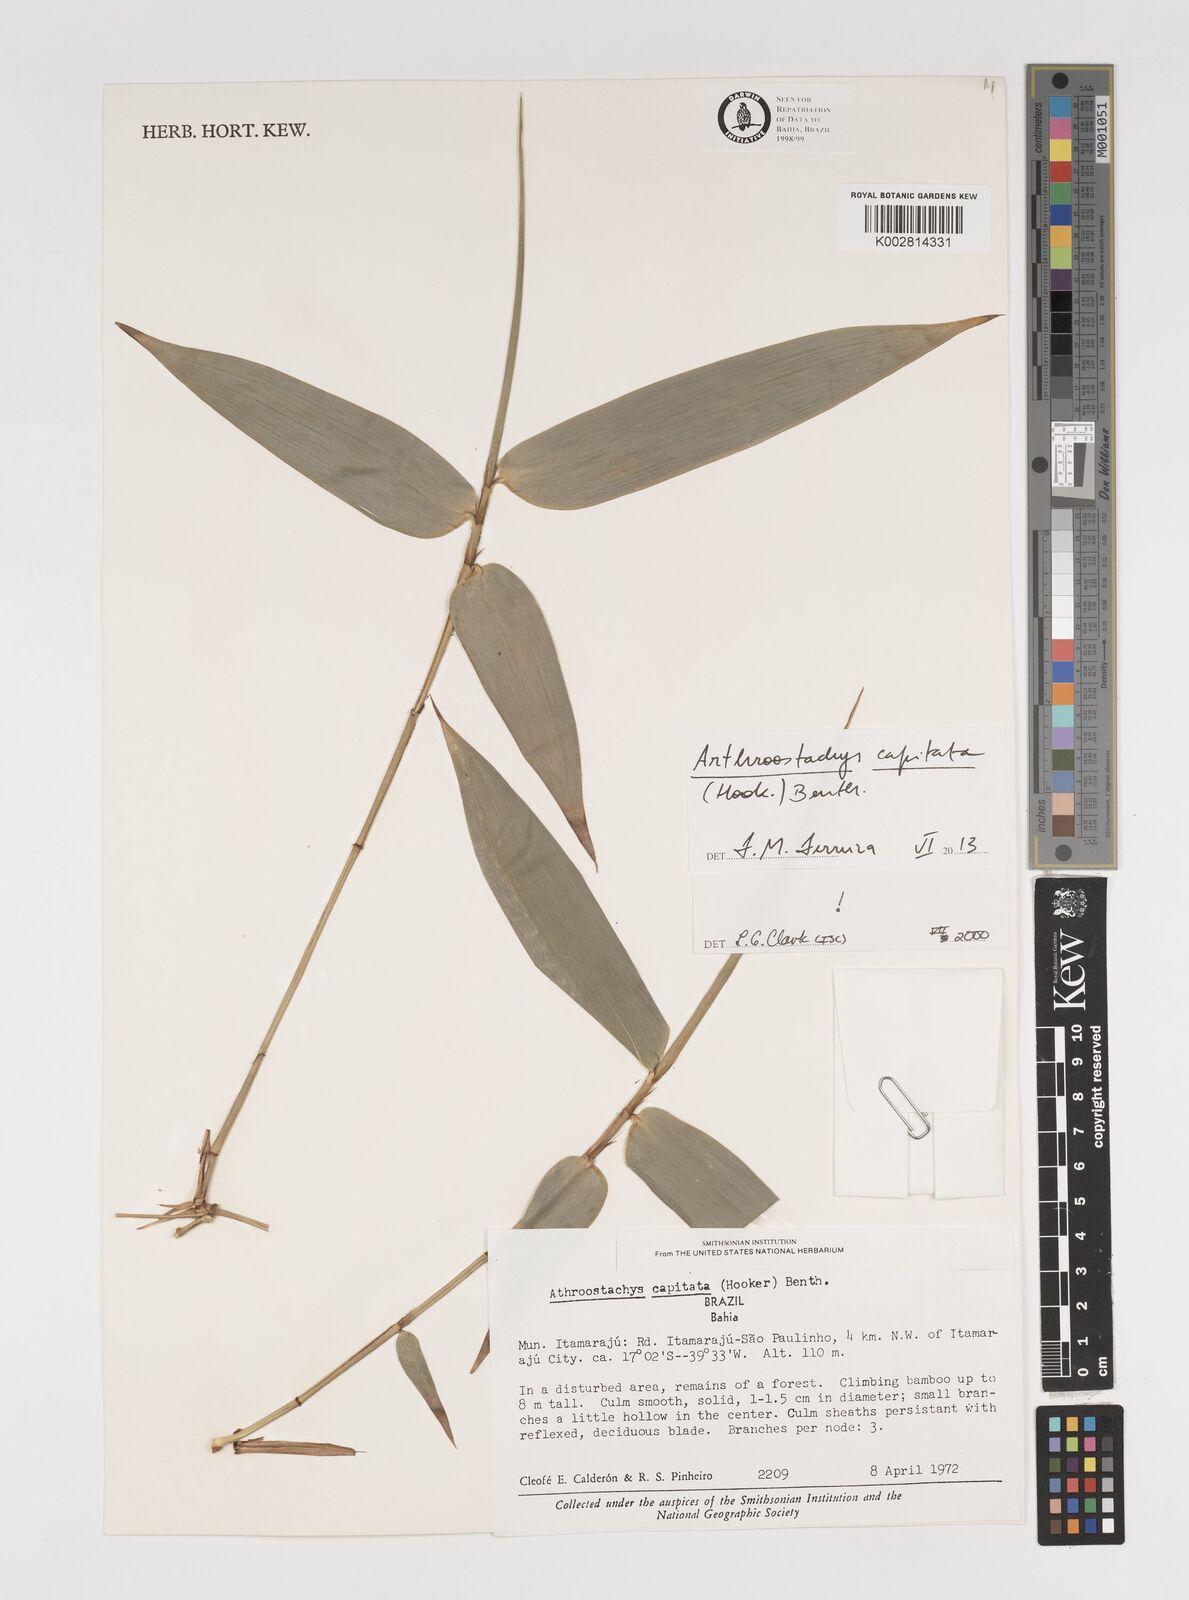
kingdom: Plantae
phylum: Tracheophyta
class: Liliopsida
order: Poales
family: Poaceae
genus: Athroostachys
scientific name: Athroostachys capitata
